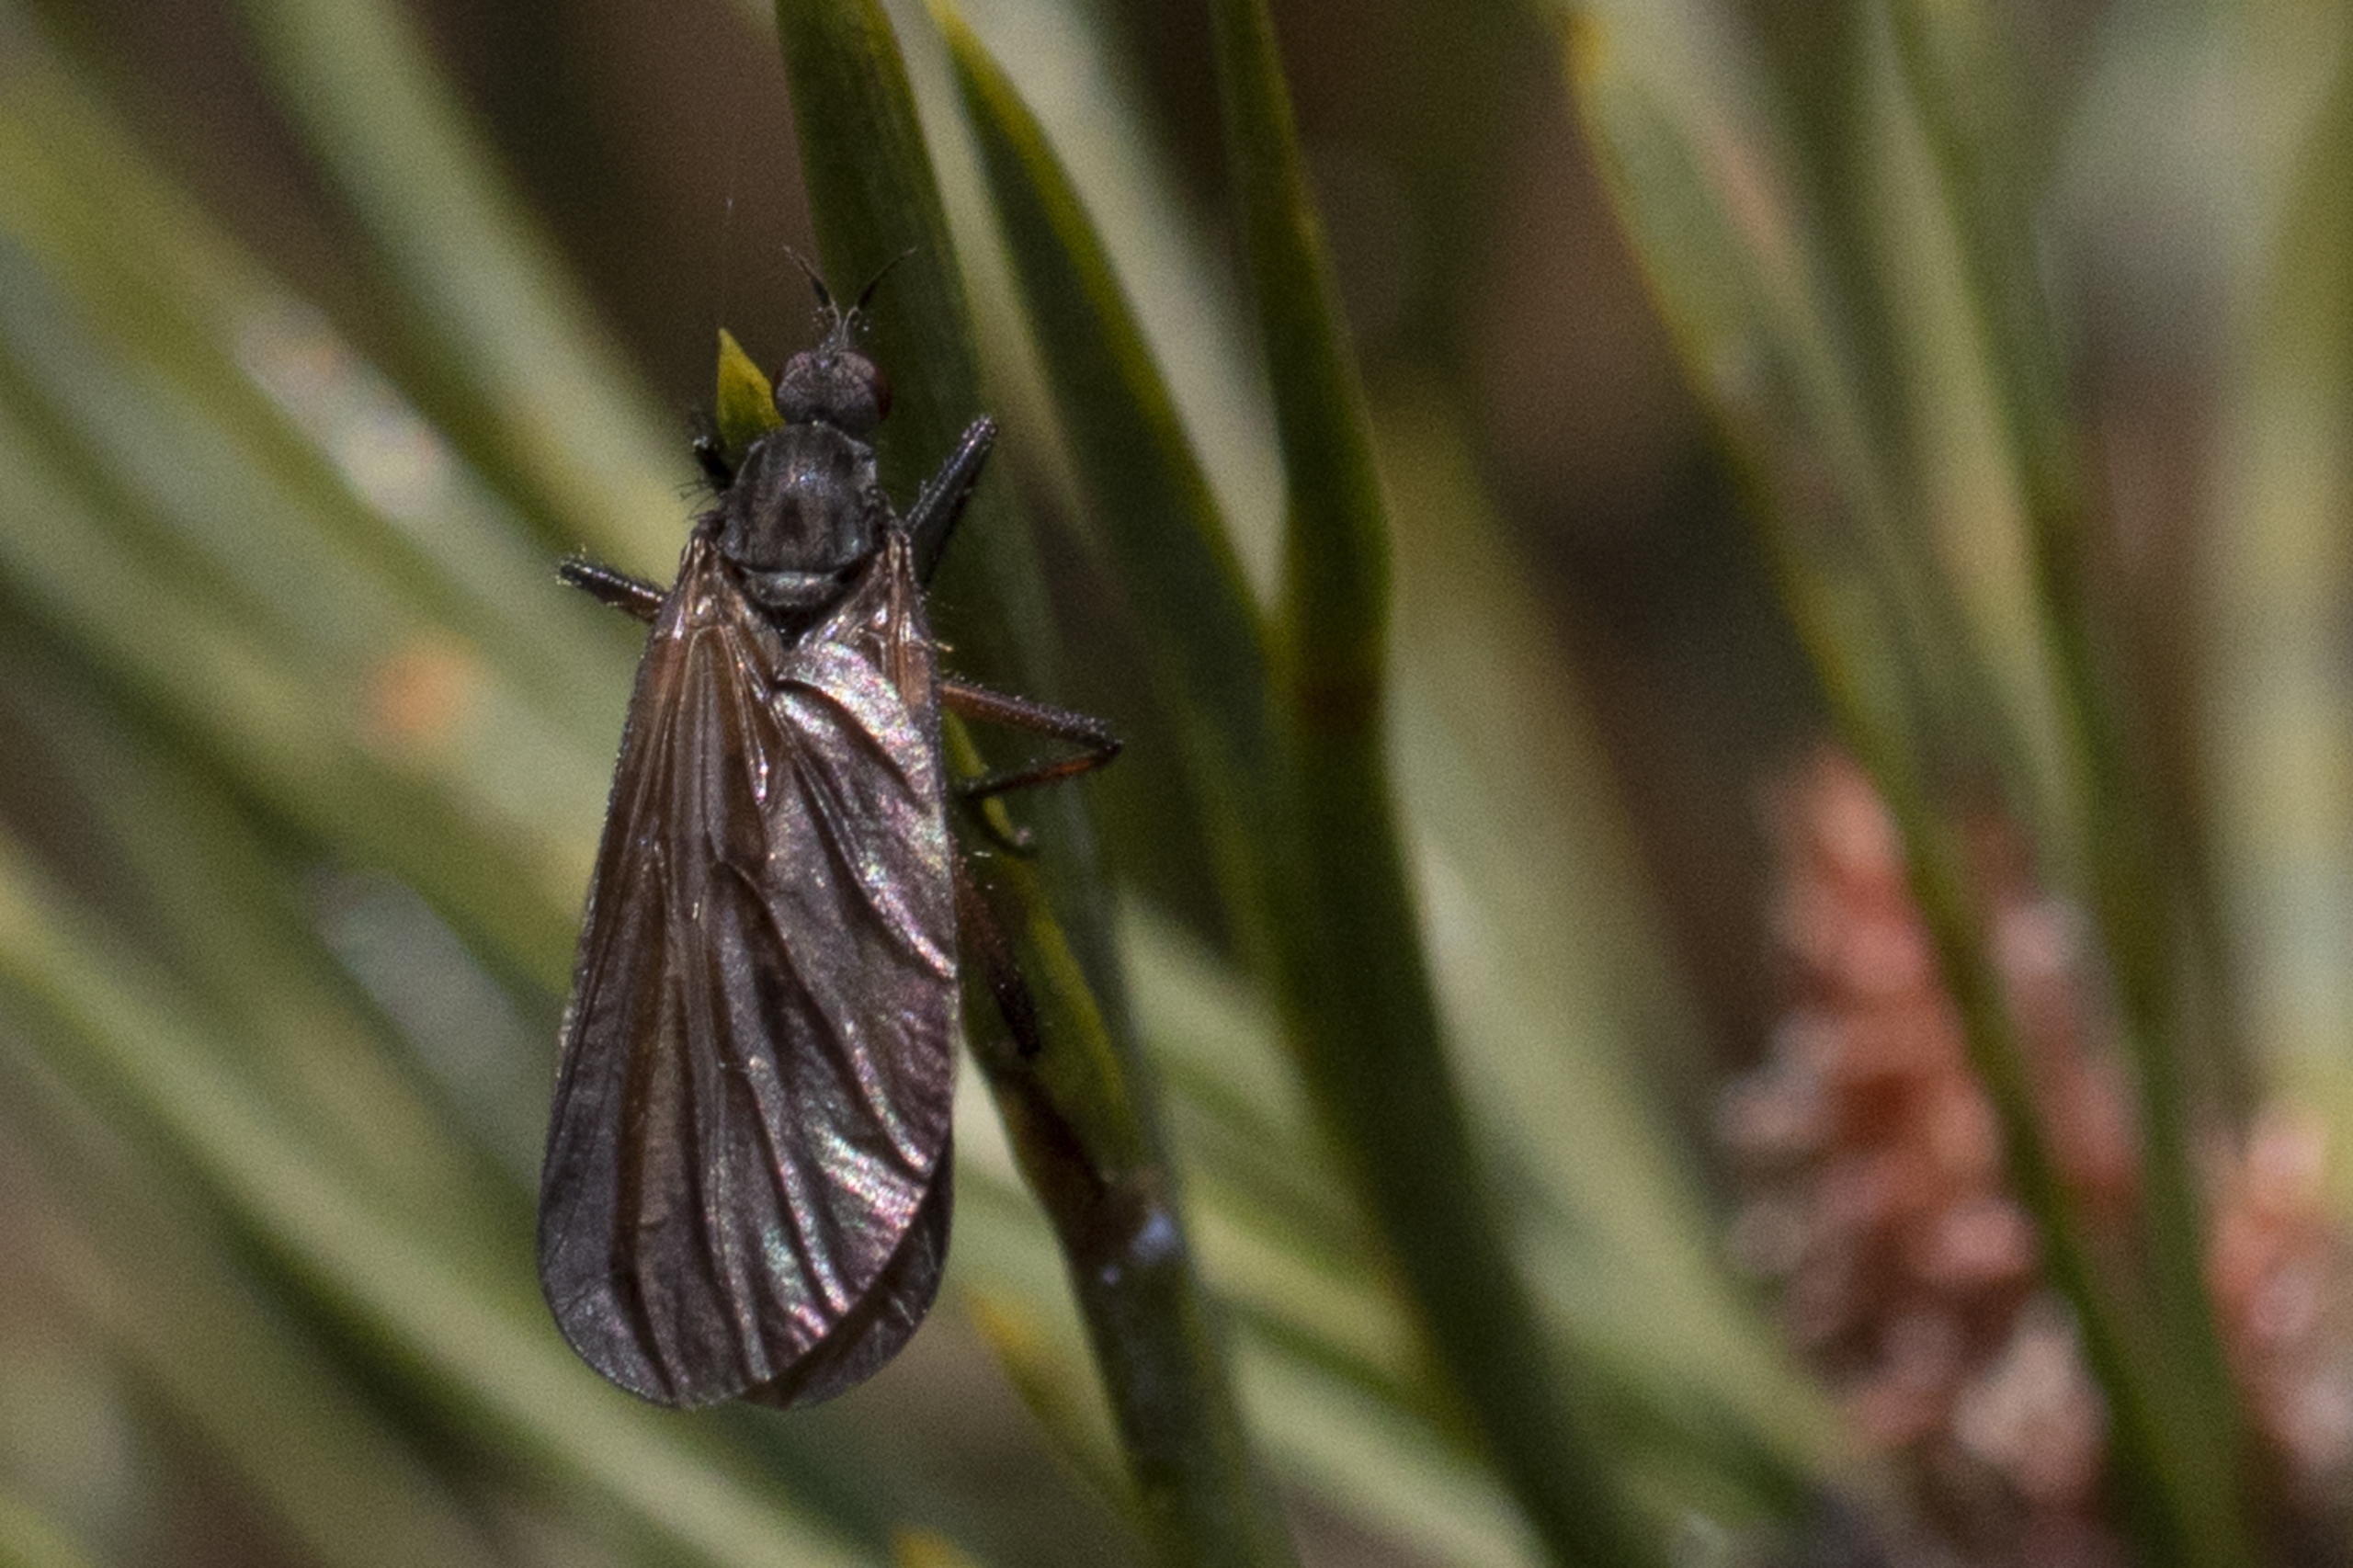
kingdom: Animalia
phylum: Arthropoda
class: Insecta
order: Diptera
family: Empididae
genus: Empis
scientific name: Empis borealis
